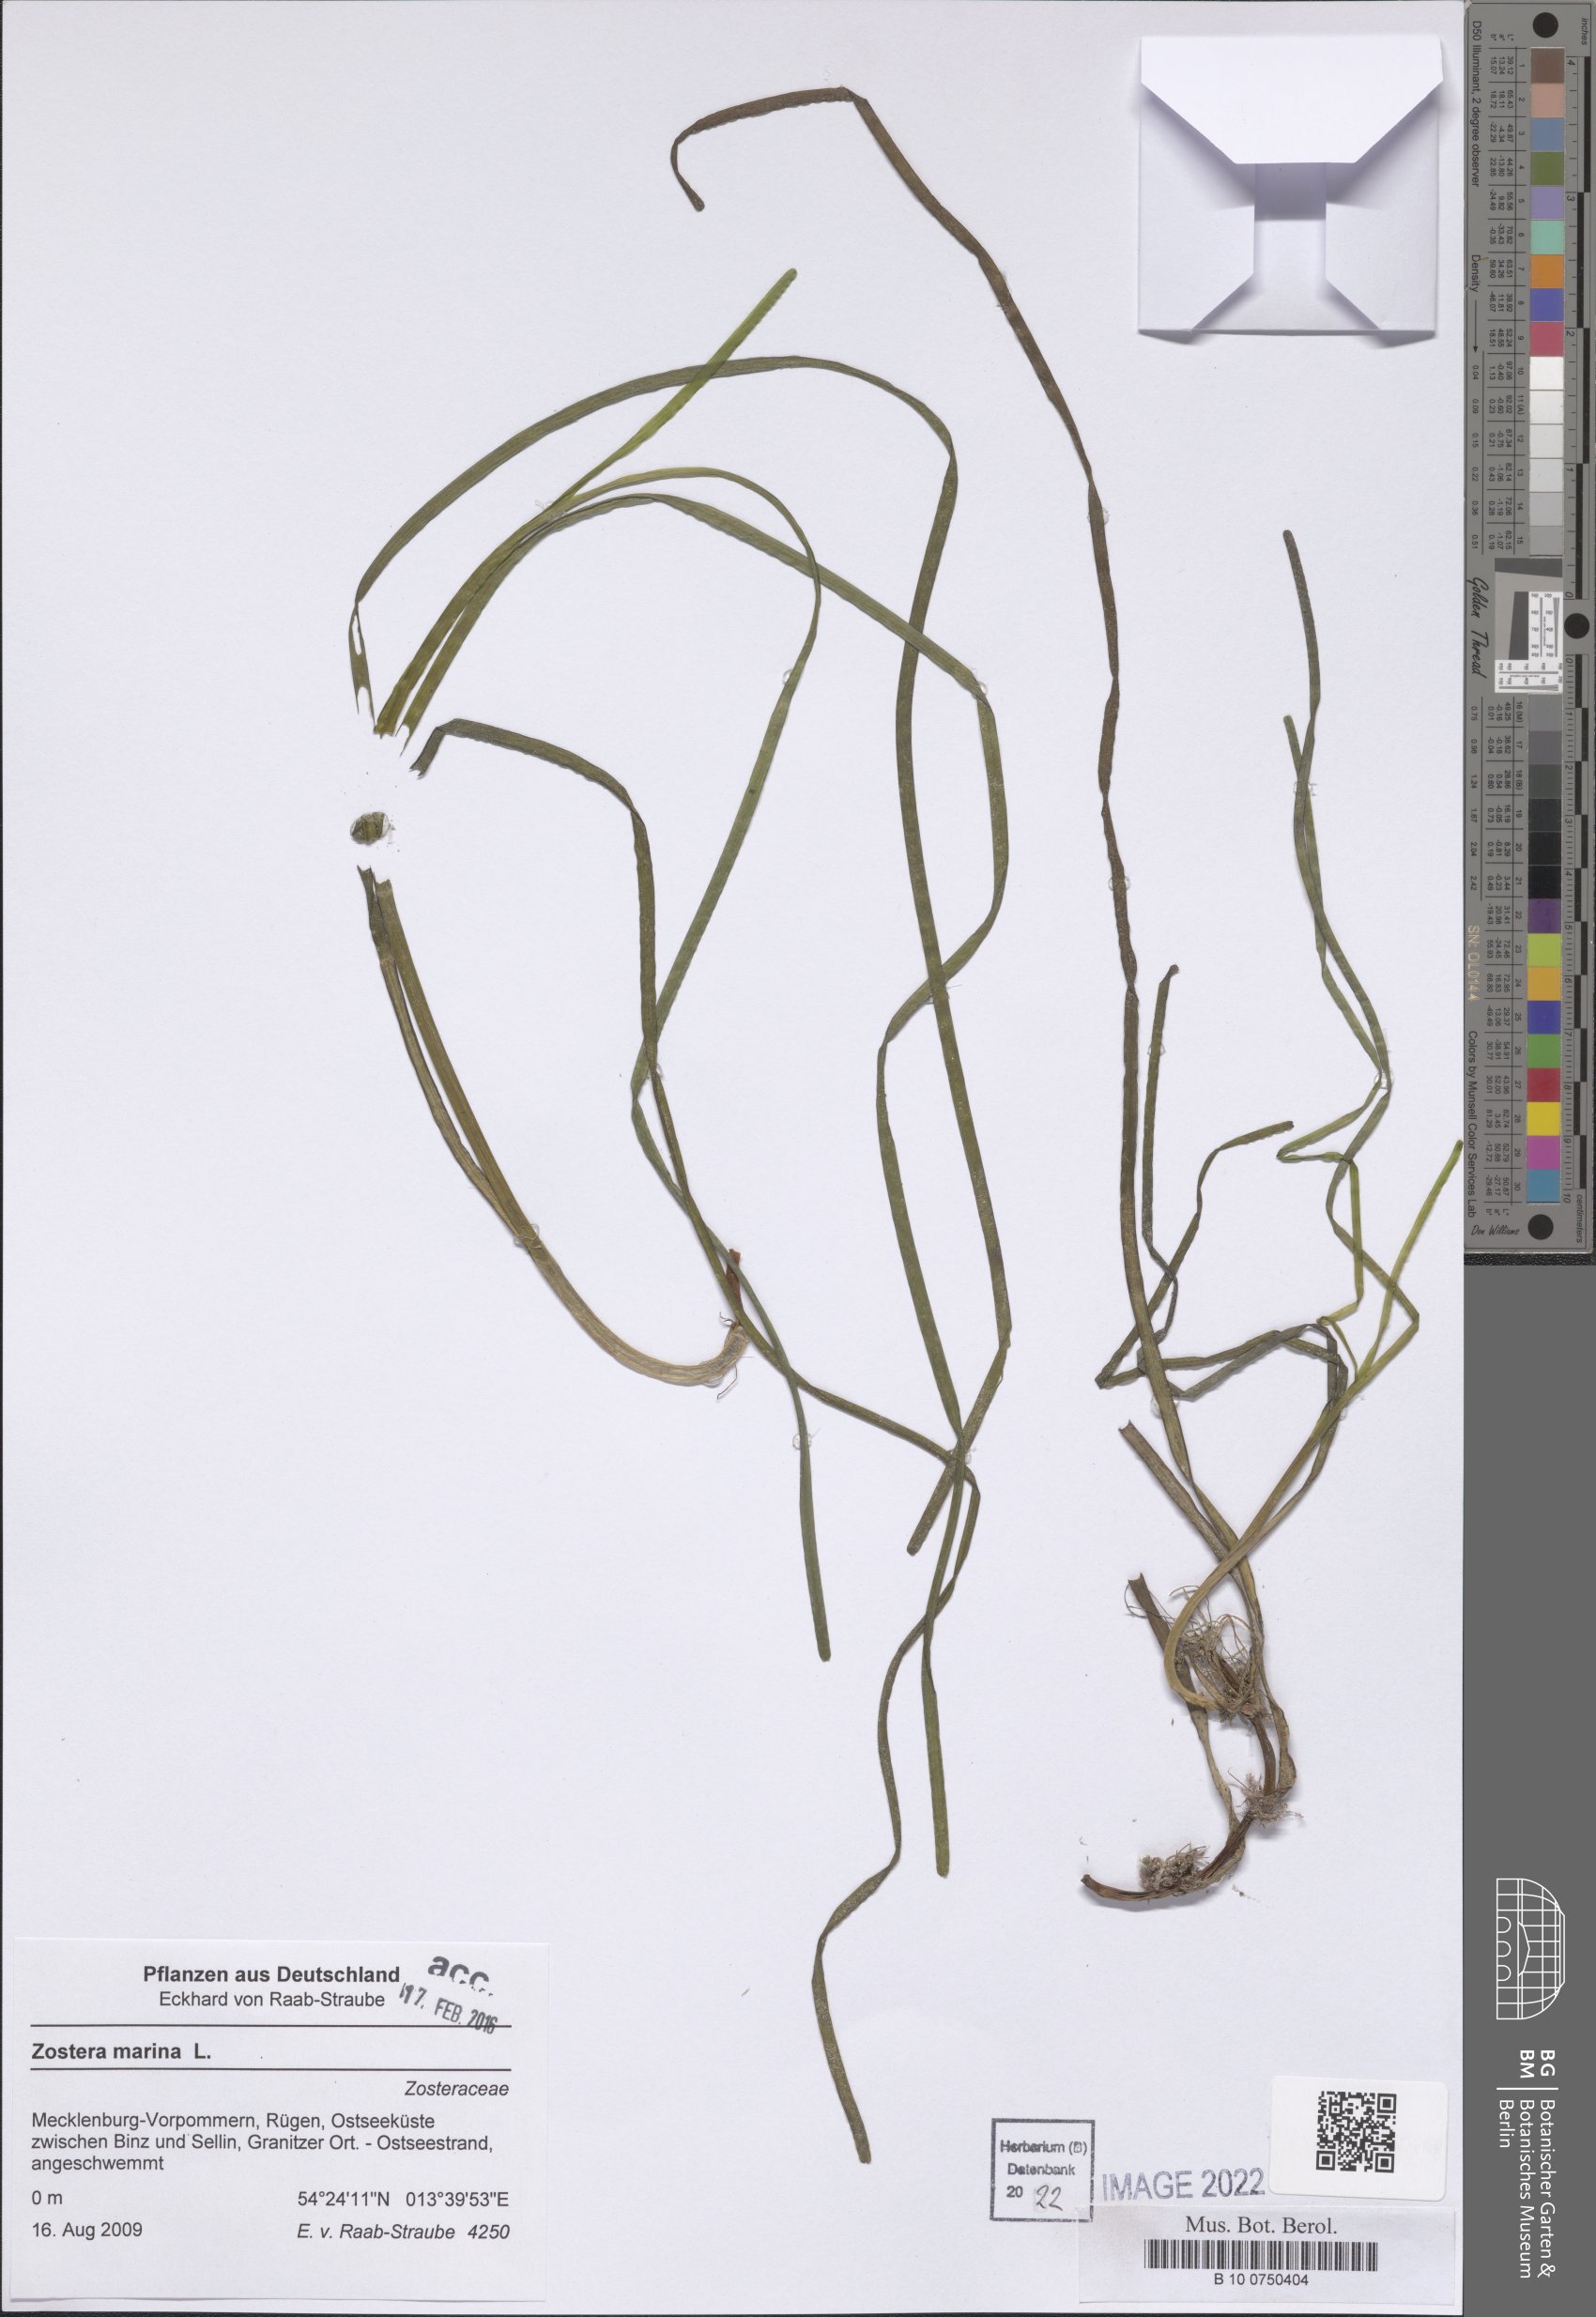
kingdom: Plantae
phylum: Tracheophyta
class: Liliopsida
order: Alismatales
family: Zosteraceae
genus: Zostera
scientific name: Zostera marina
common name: Eelgrass
